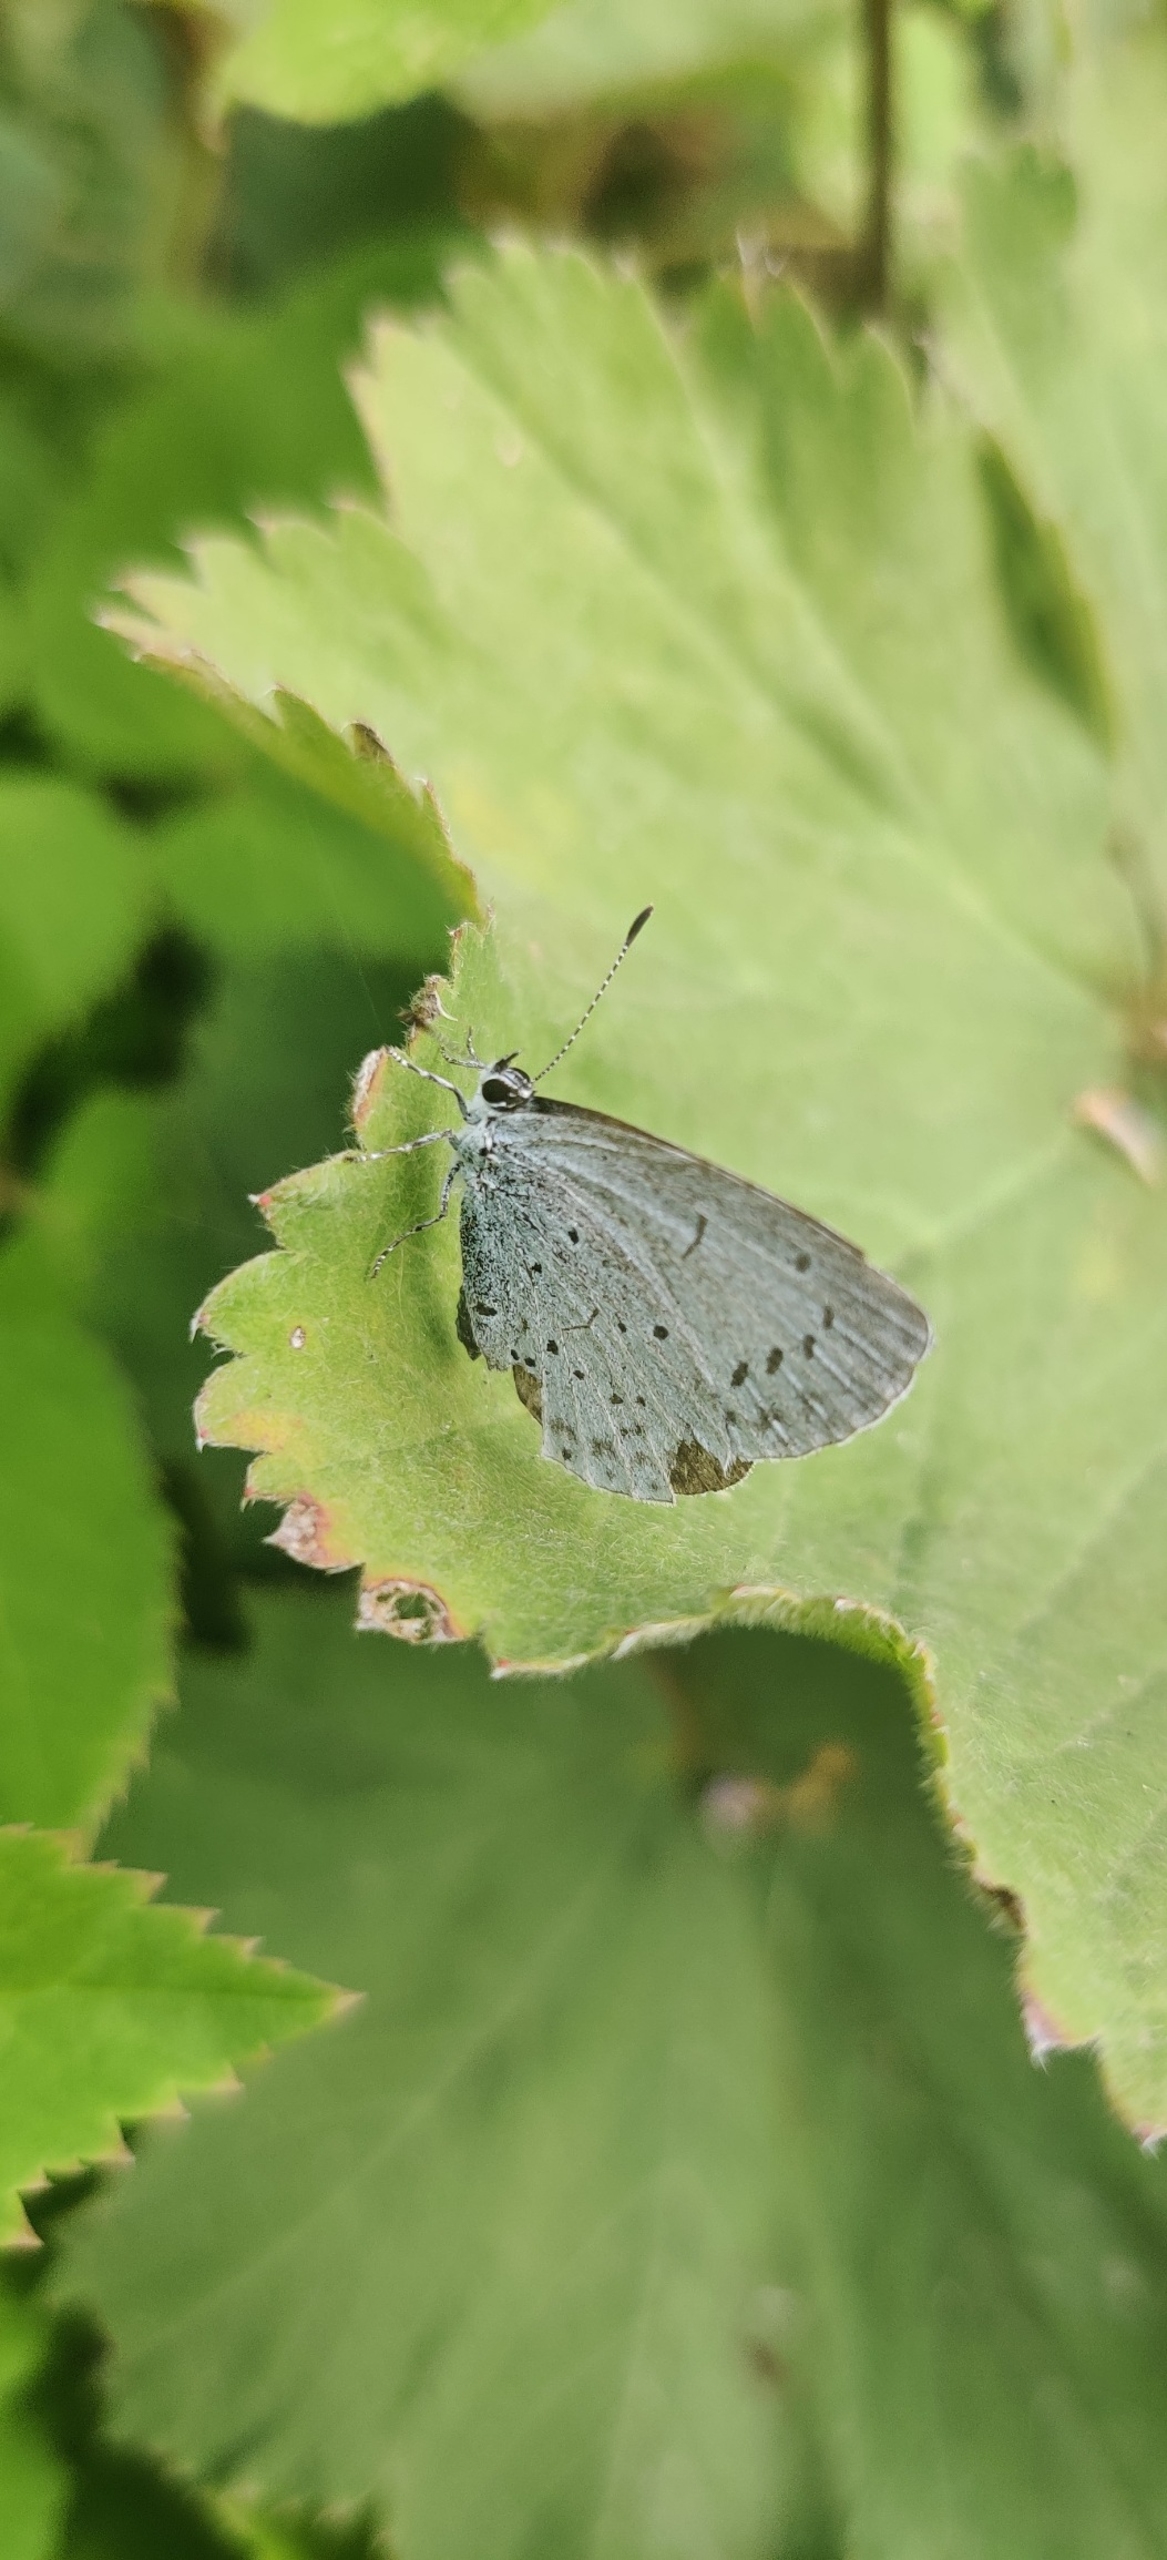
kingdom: Animalia
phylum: Arthropoda
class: Insecta
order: Lepidoptera
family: Lycaenidae
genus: Celastrina
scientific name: Celastrina argiolus
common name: Skovblåfugl
